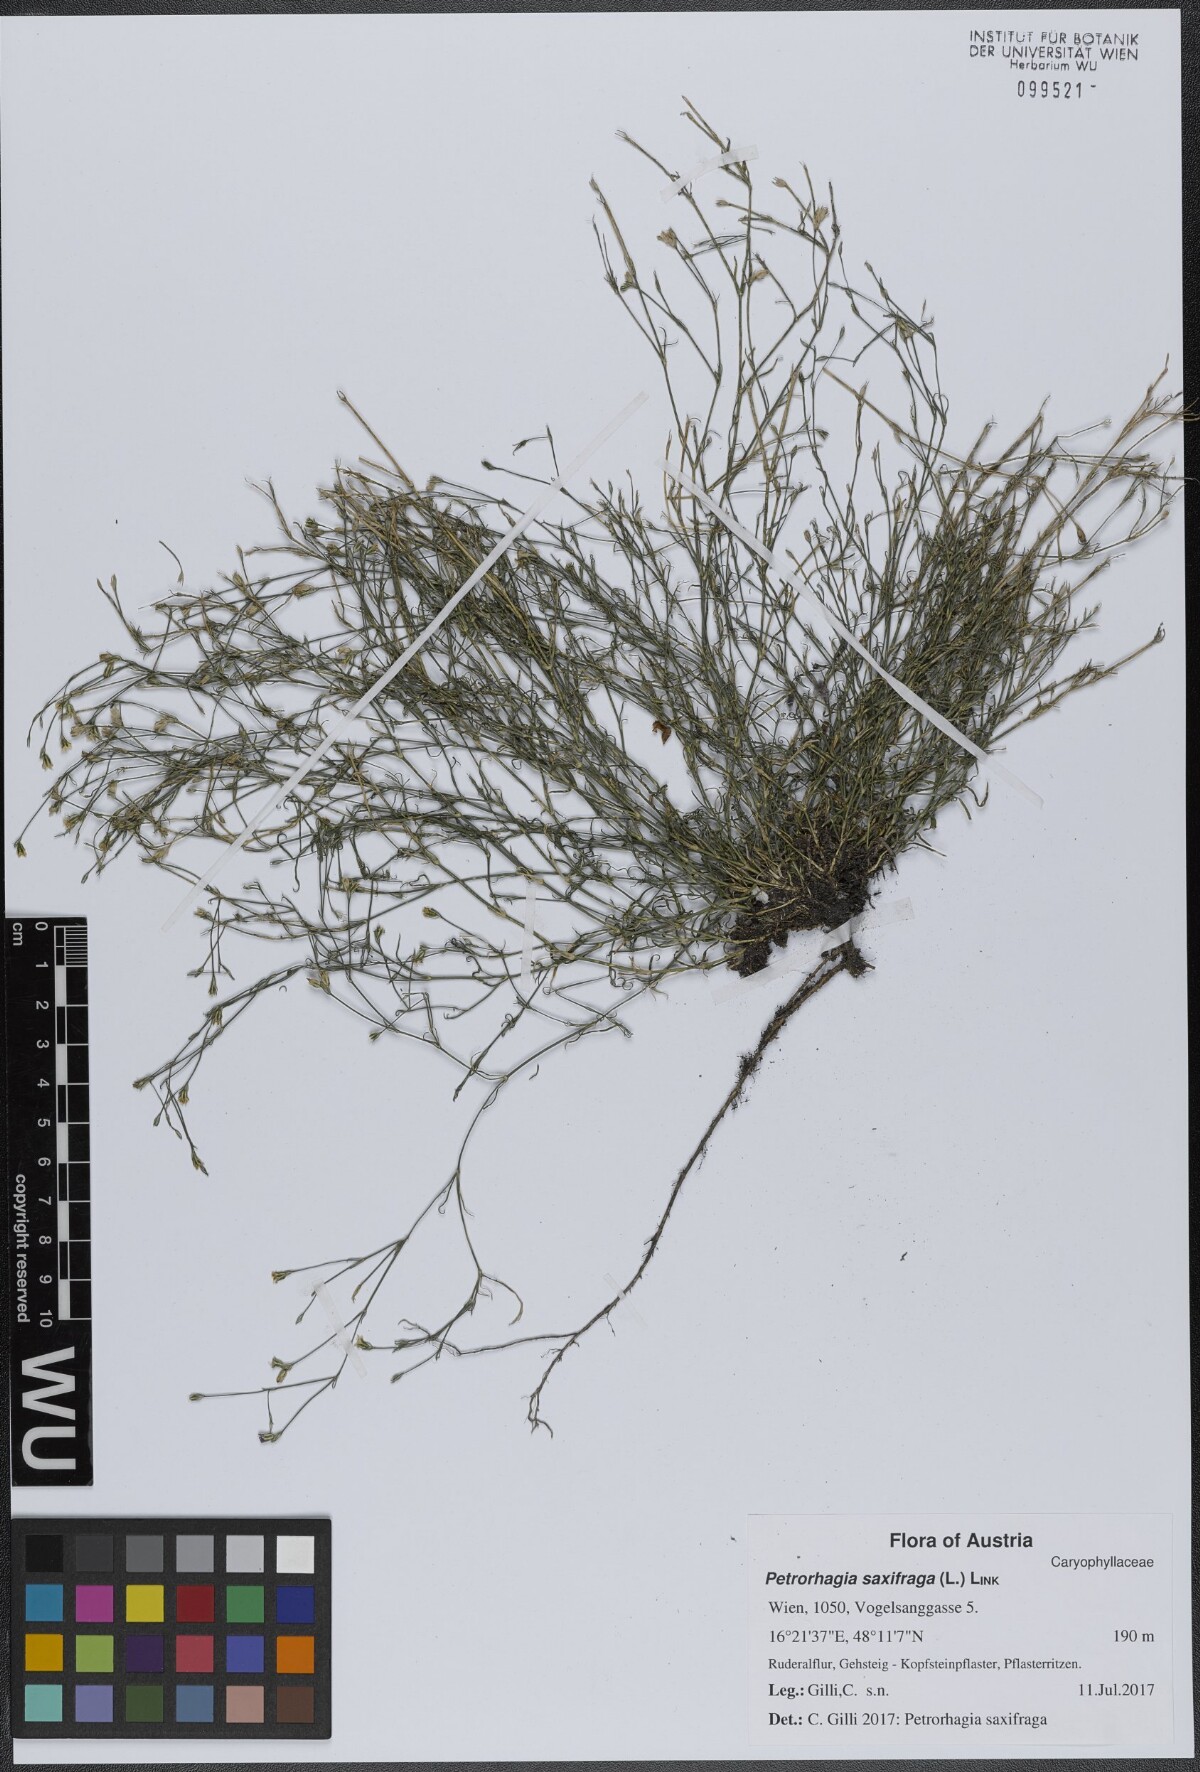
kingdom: Plantae
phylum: Tracheophyta
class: Magnoliopsida
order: Caryophyllales
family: Caryophyllaceae
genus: Petrorhagia
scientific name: Petrorhagia saxifraga
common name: Tunicflower
